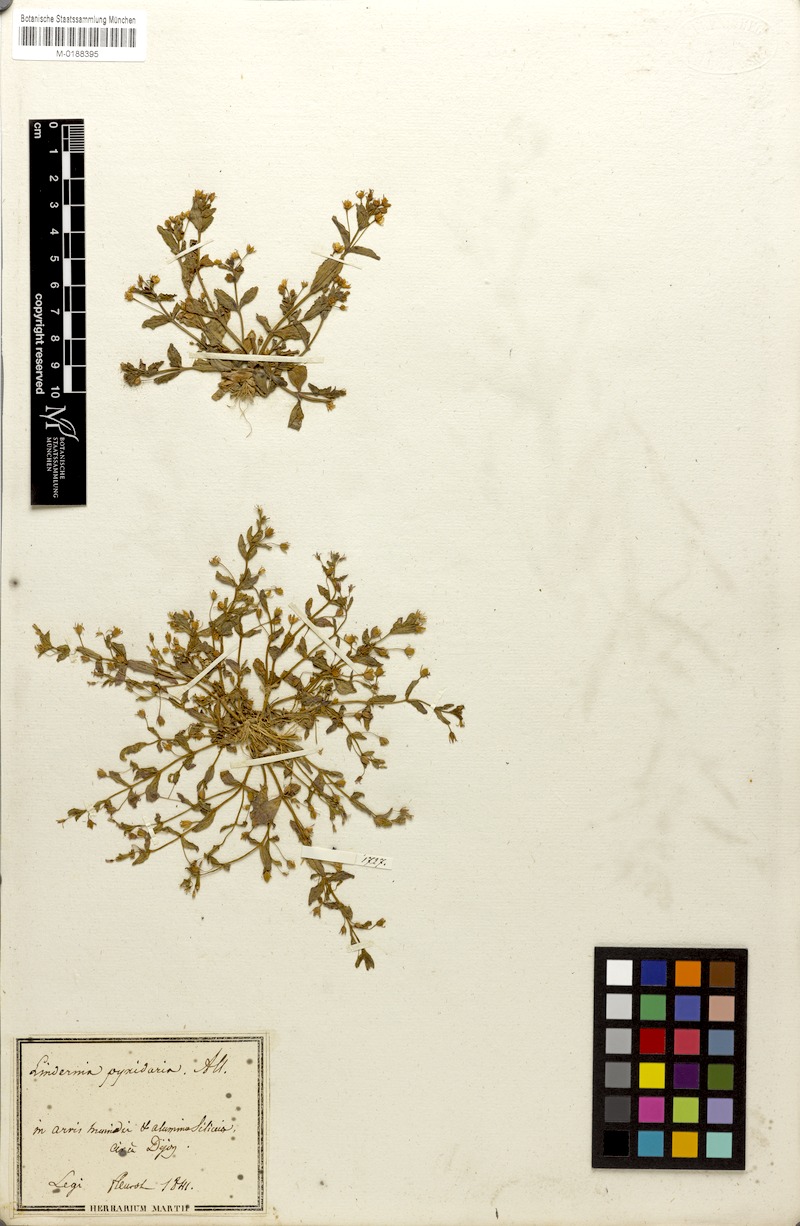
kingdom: Plantae
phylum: Tracheophyta
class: Magnoliopsida
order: Lamiales
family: Linderniaceae
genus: Lindernia
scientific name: Lindernia procumbens
